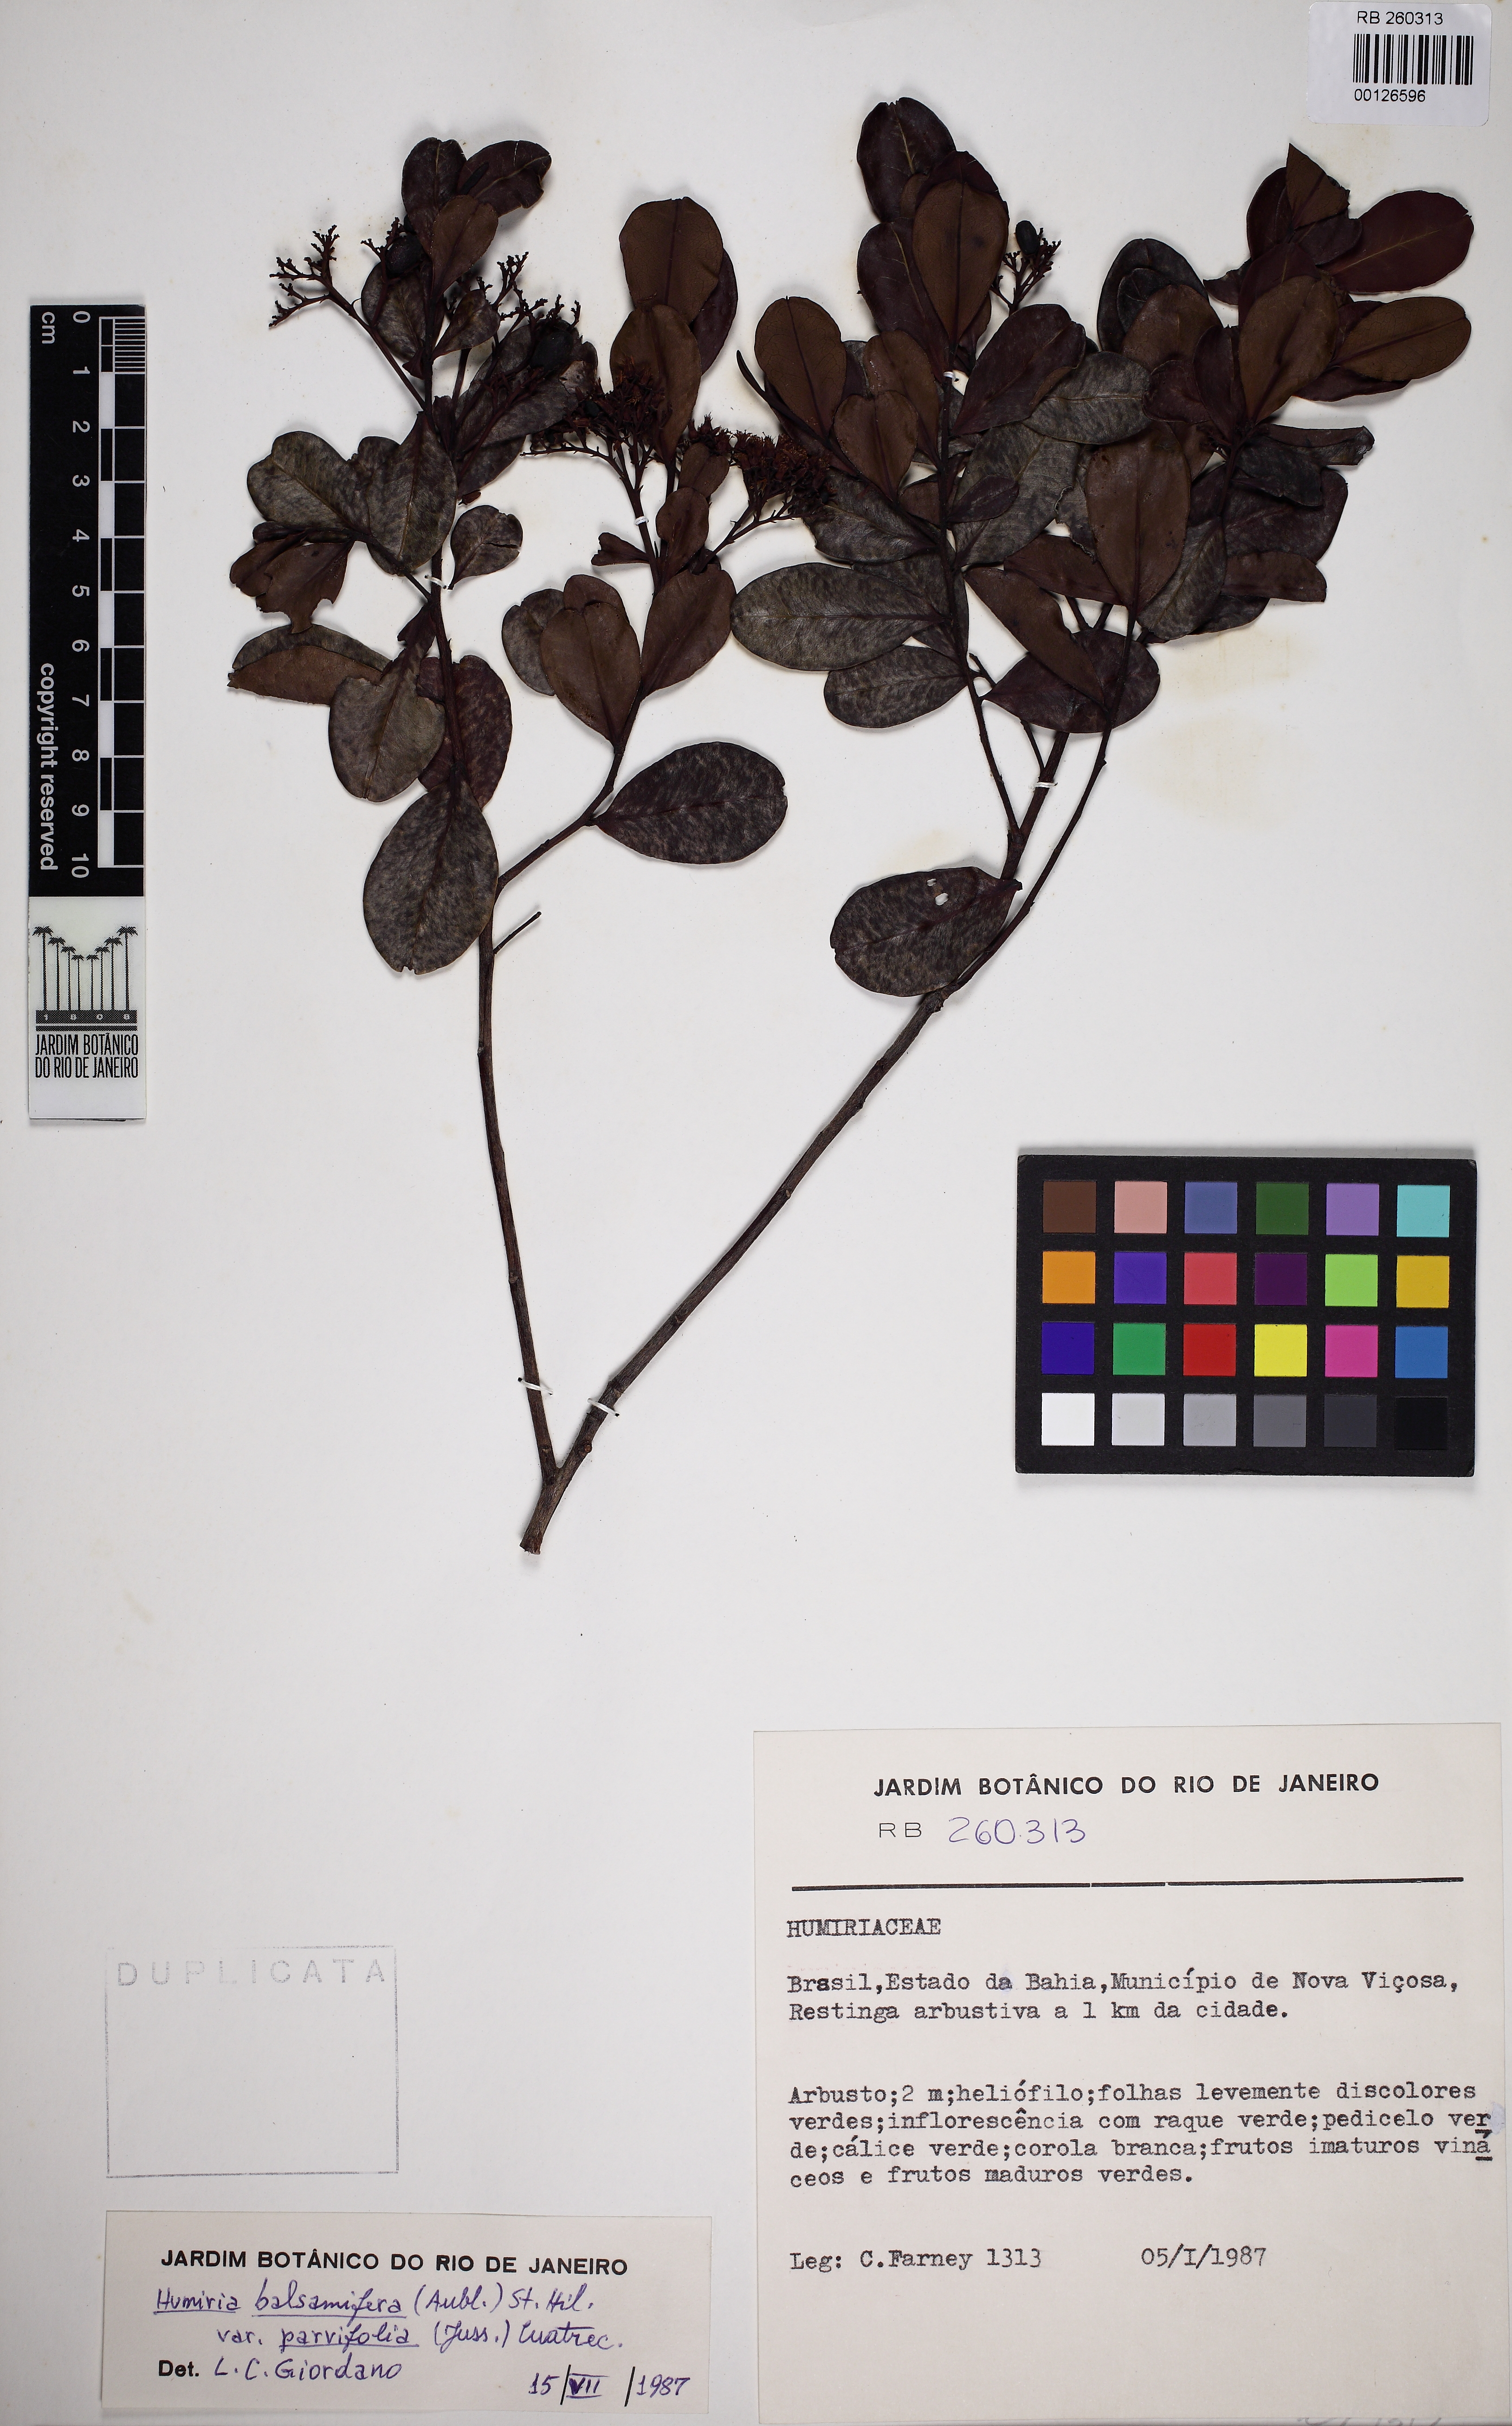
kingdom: Plantae
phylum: Tracheophyta
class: Magnoliopsida
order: Malpighiales
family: Humiriaceae
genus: Humiria
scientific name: Humiria parvifolia
